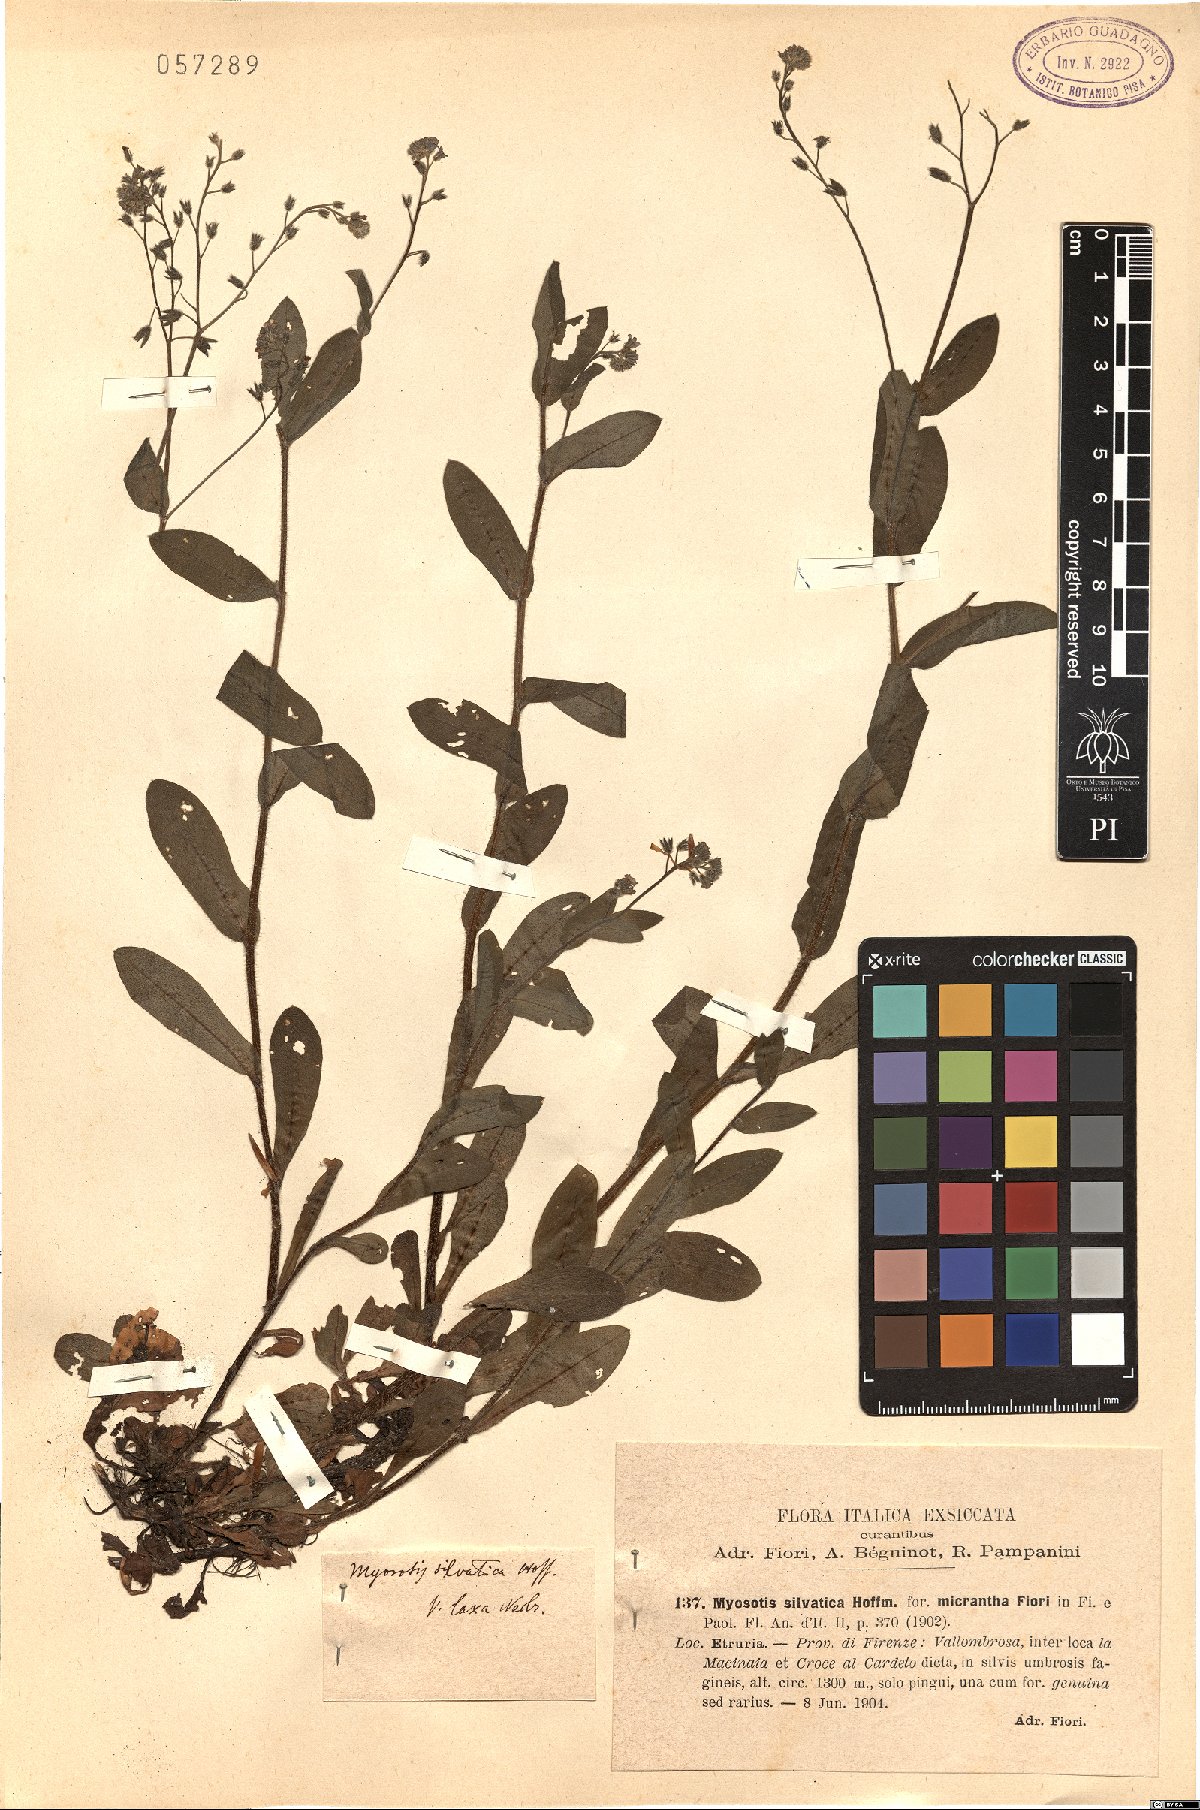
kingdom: Plantae
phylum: Tracheophyta
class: Magnoliopsida
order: Boraginales
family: Boraginaceae
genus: Myosotis
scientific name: Myosotis sylvatica
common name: Wood forget-me-not
